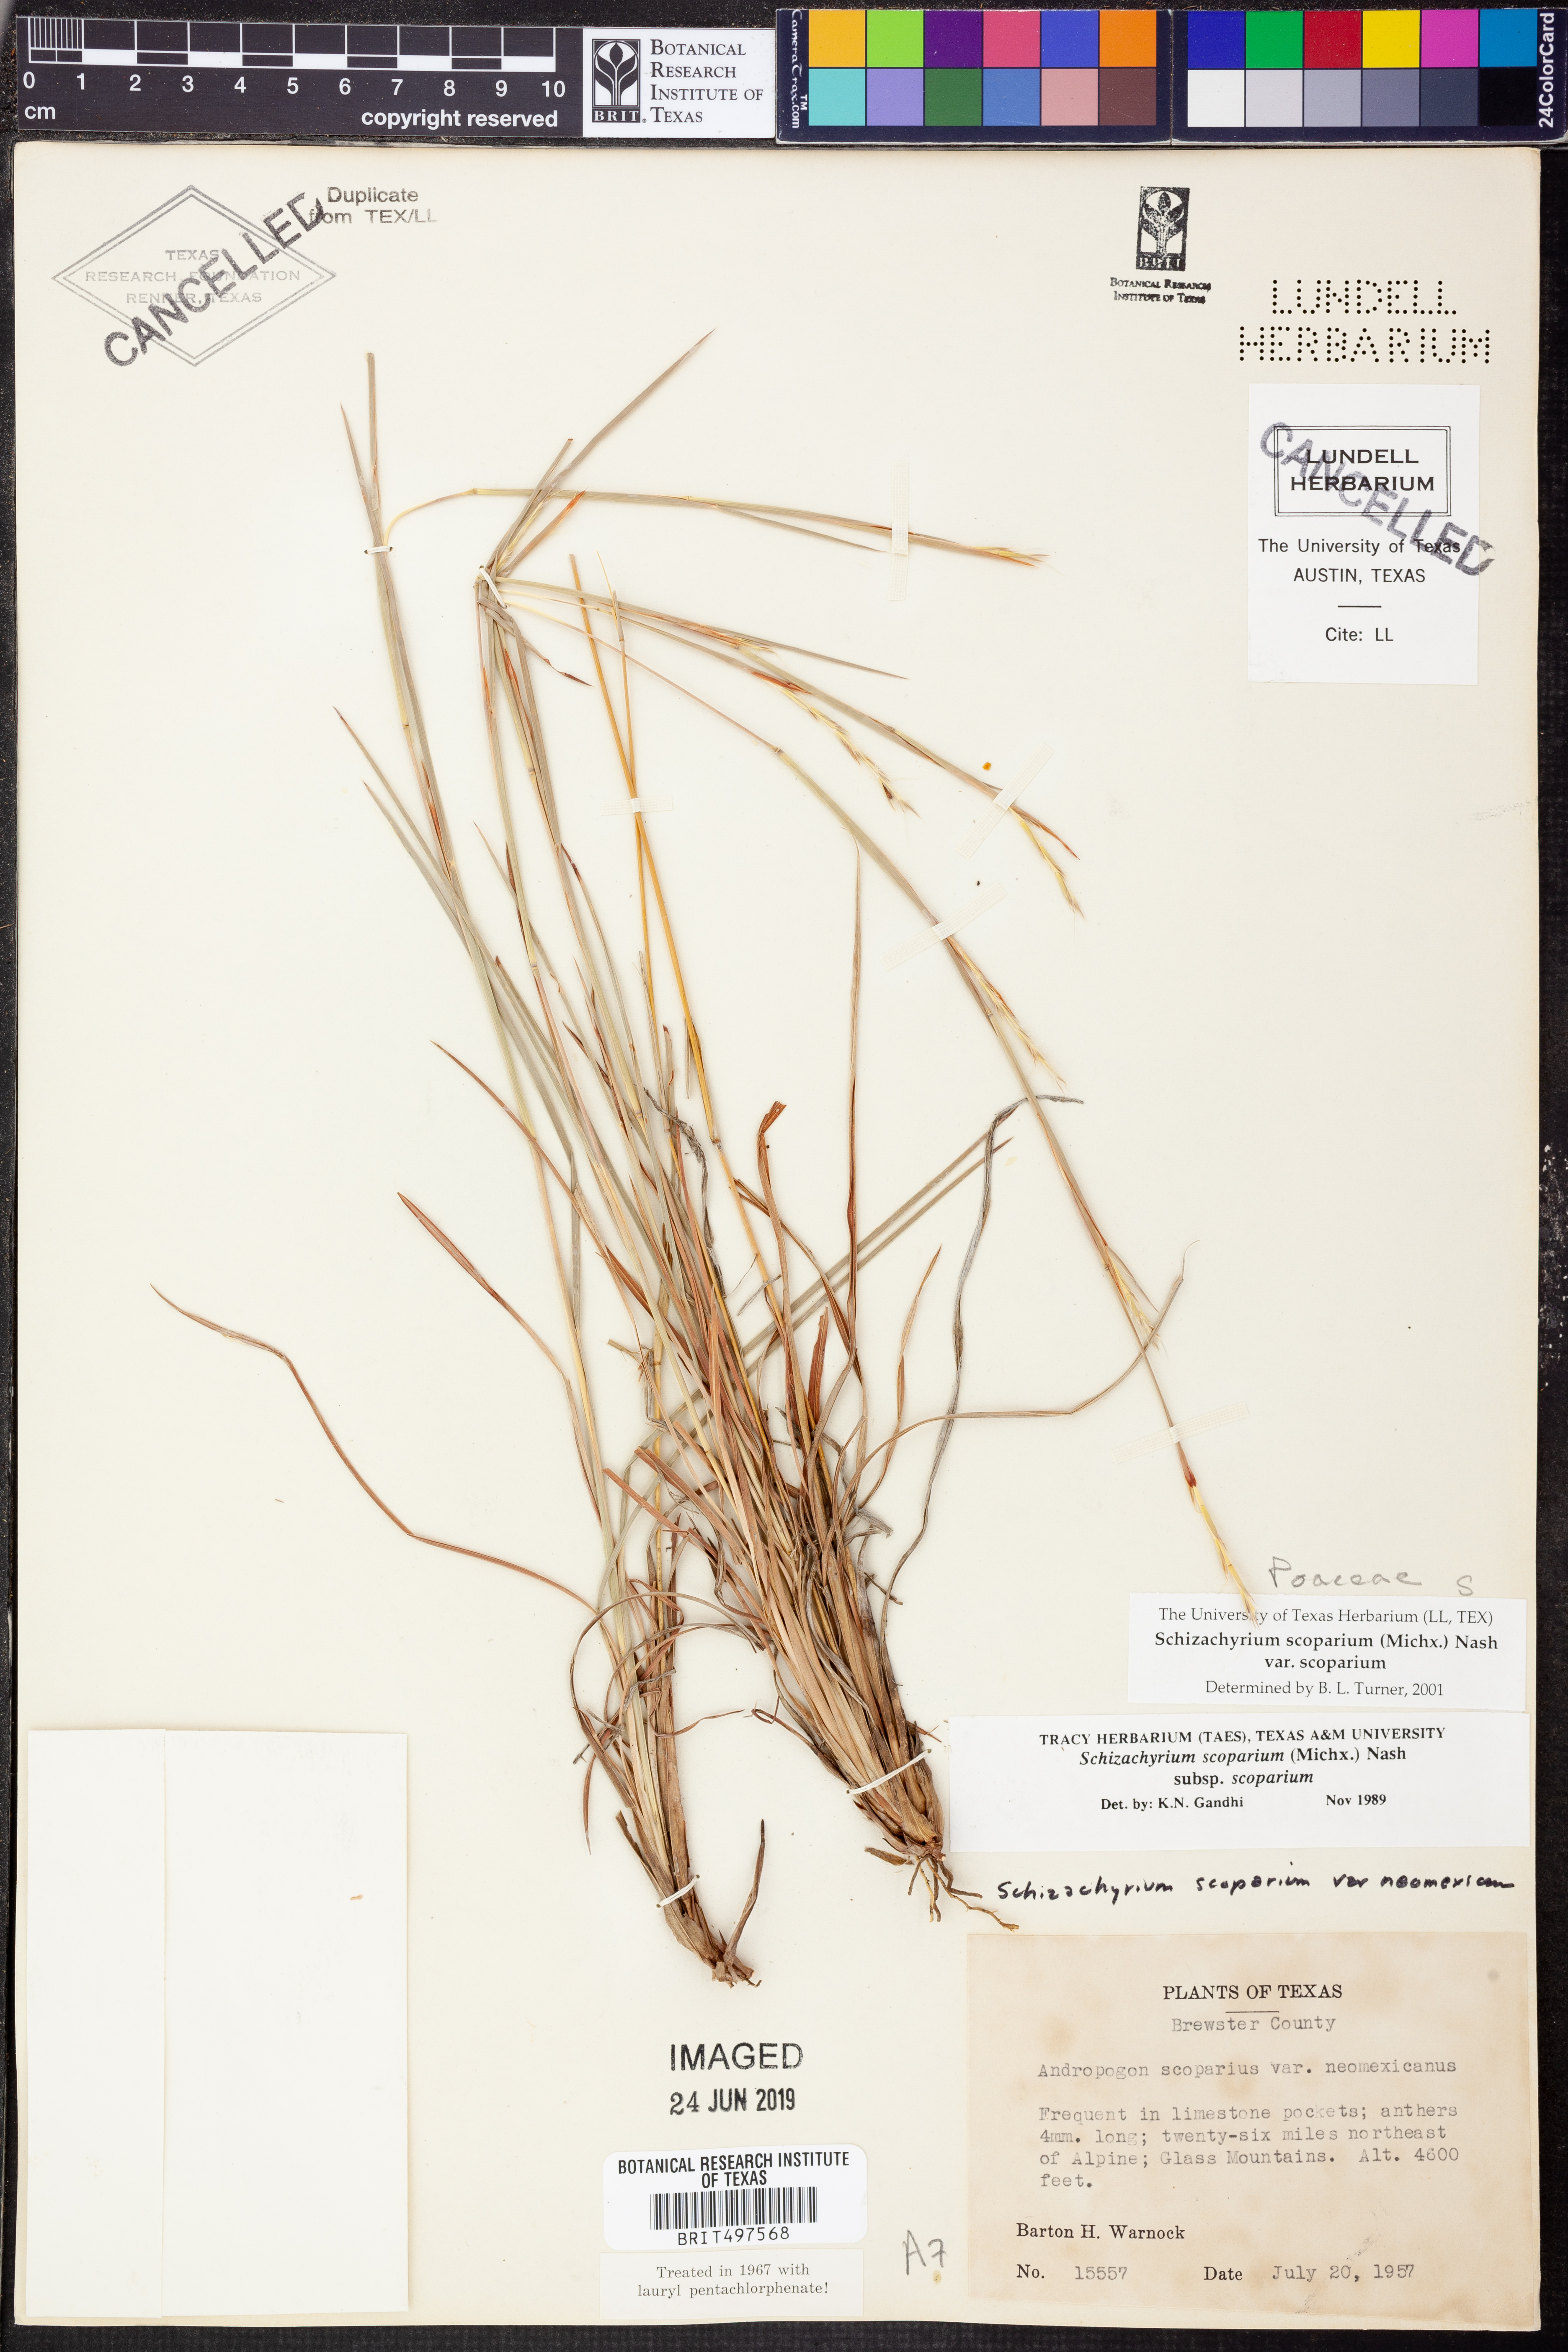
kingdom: Plantae
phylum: Tracheophyta
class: Liliopsida
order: Poales
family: Poaceae
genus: Schizachyrium
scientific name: Schizachyrium scoparium
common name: Little bluestem
